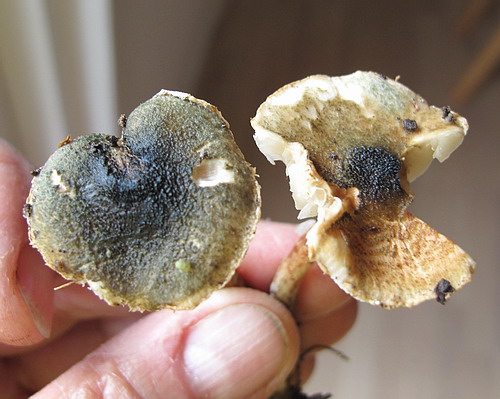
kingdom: Fungi
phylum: Basidiomycota
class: Agaricomycetes
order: Agaricales
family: Agaricaceae
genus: Lepiota
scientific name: Lepiota grangei
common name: grønskællet parasolhat
